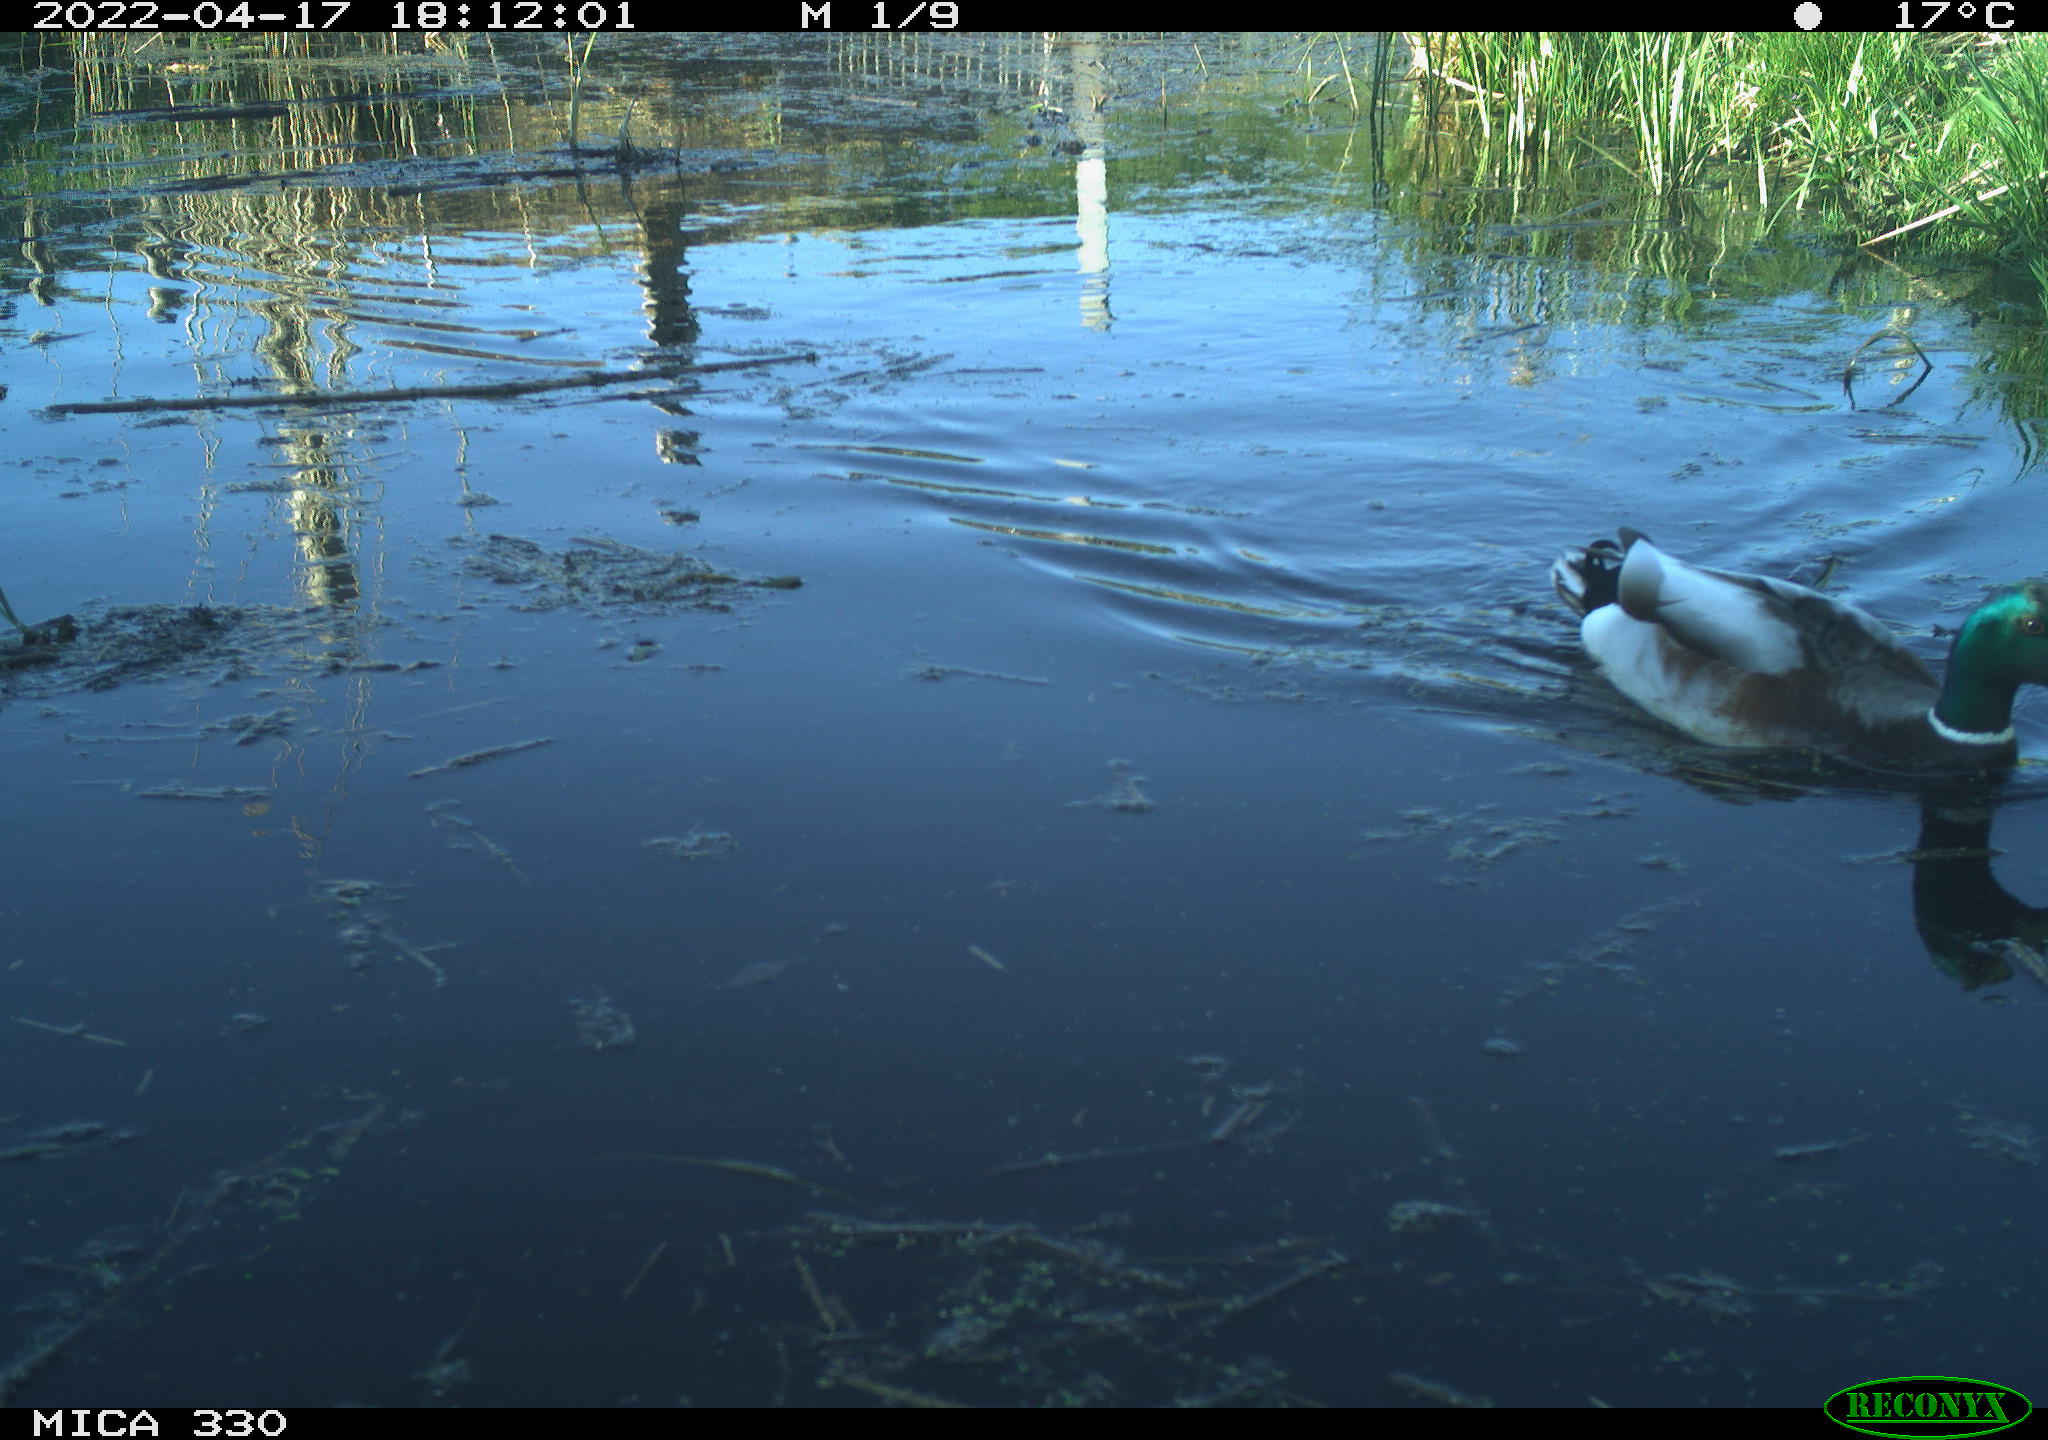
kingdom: Animalia
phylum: Chordata
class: Aves
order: Anseriformes
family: Anatidae
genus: Anas
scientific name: Anas platyrhynchos
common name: Mallard
